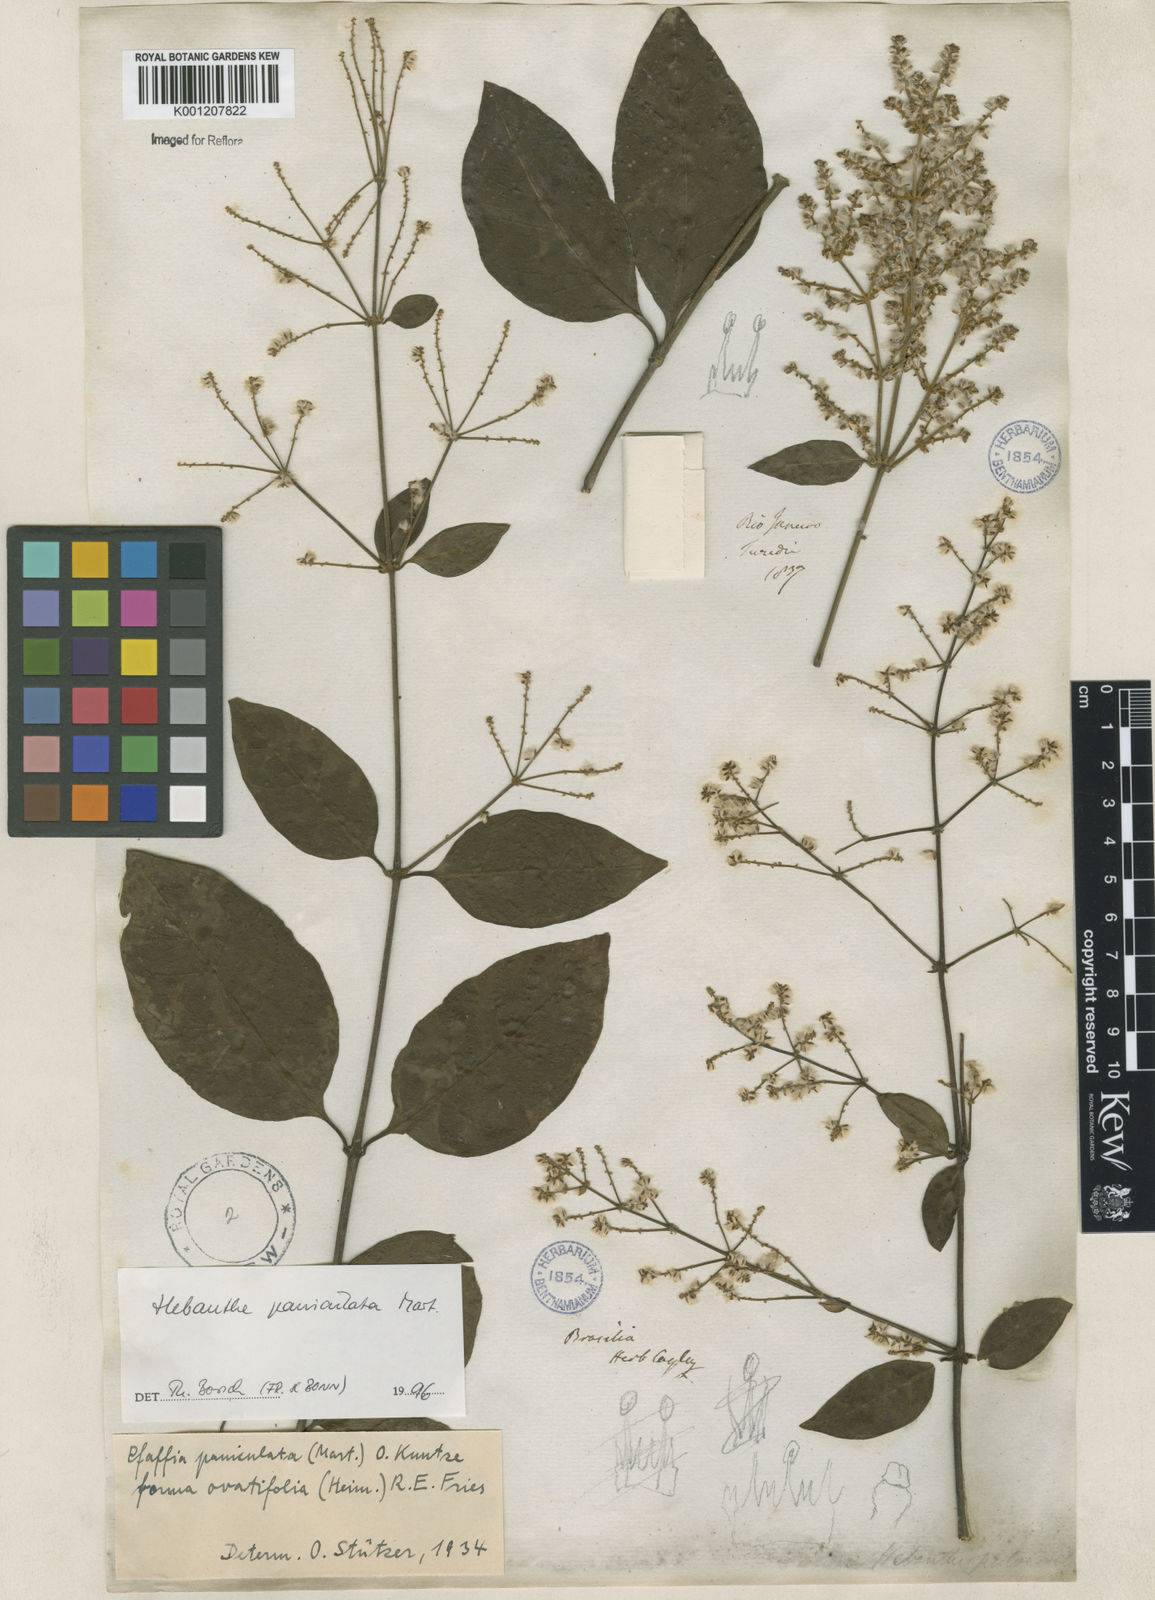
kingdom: Plantae
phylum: Tracheophyta
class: Magnoliopsida
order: Caryophyllales
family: Amaranthaceae
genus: Hebanthe
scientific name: Hebanthe erianthos
